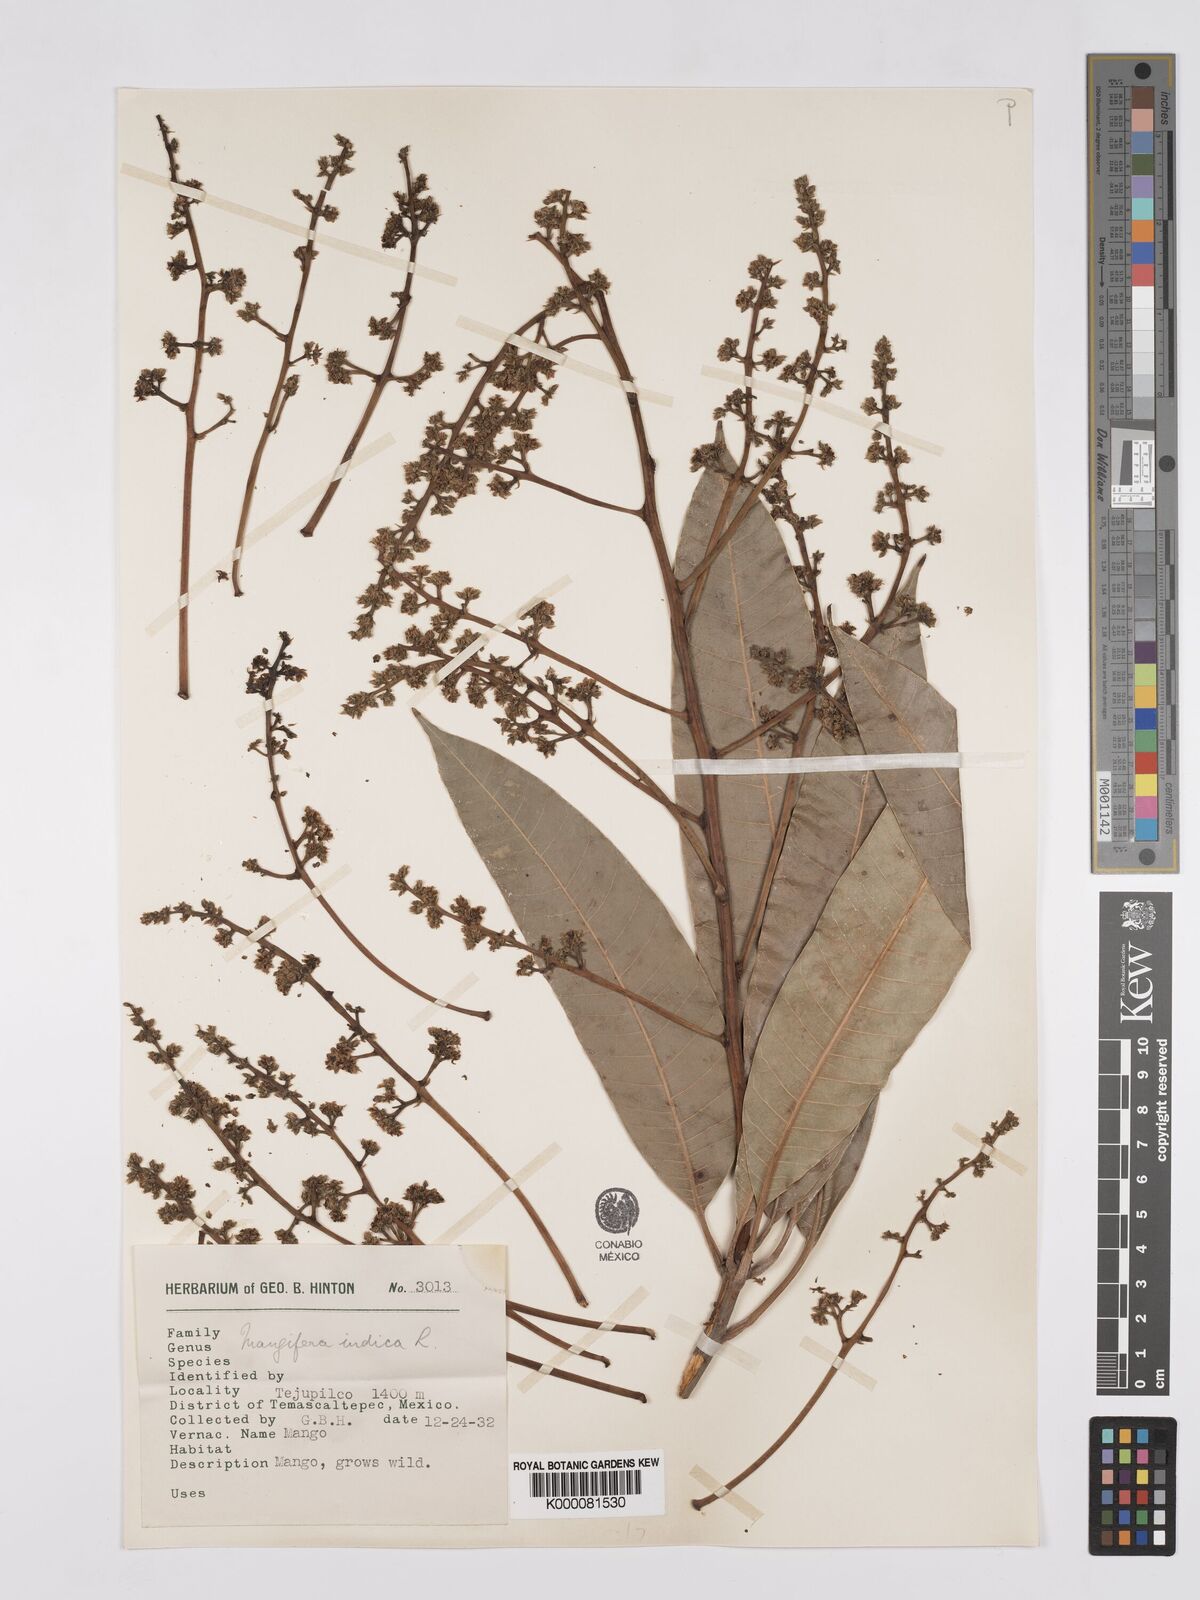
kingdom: Plantae
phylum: Tracheophyta
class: Magnoliopsida
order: Sapindales
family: Anacardiaceae
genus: Mangifera
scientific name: Mangifera indica
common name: Mango
